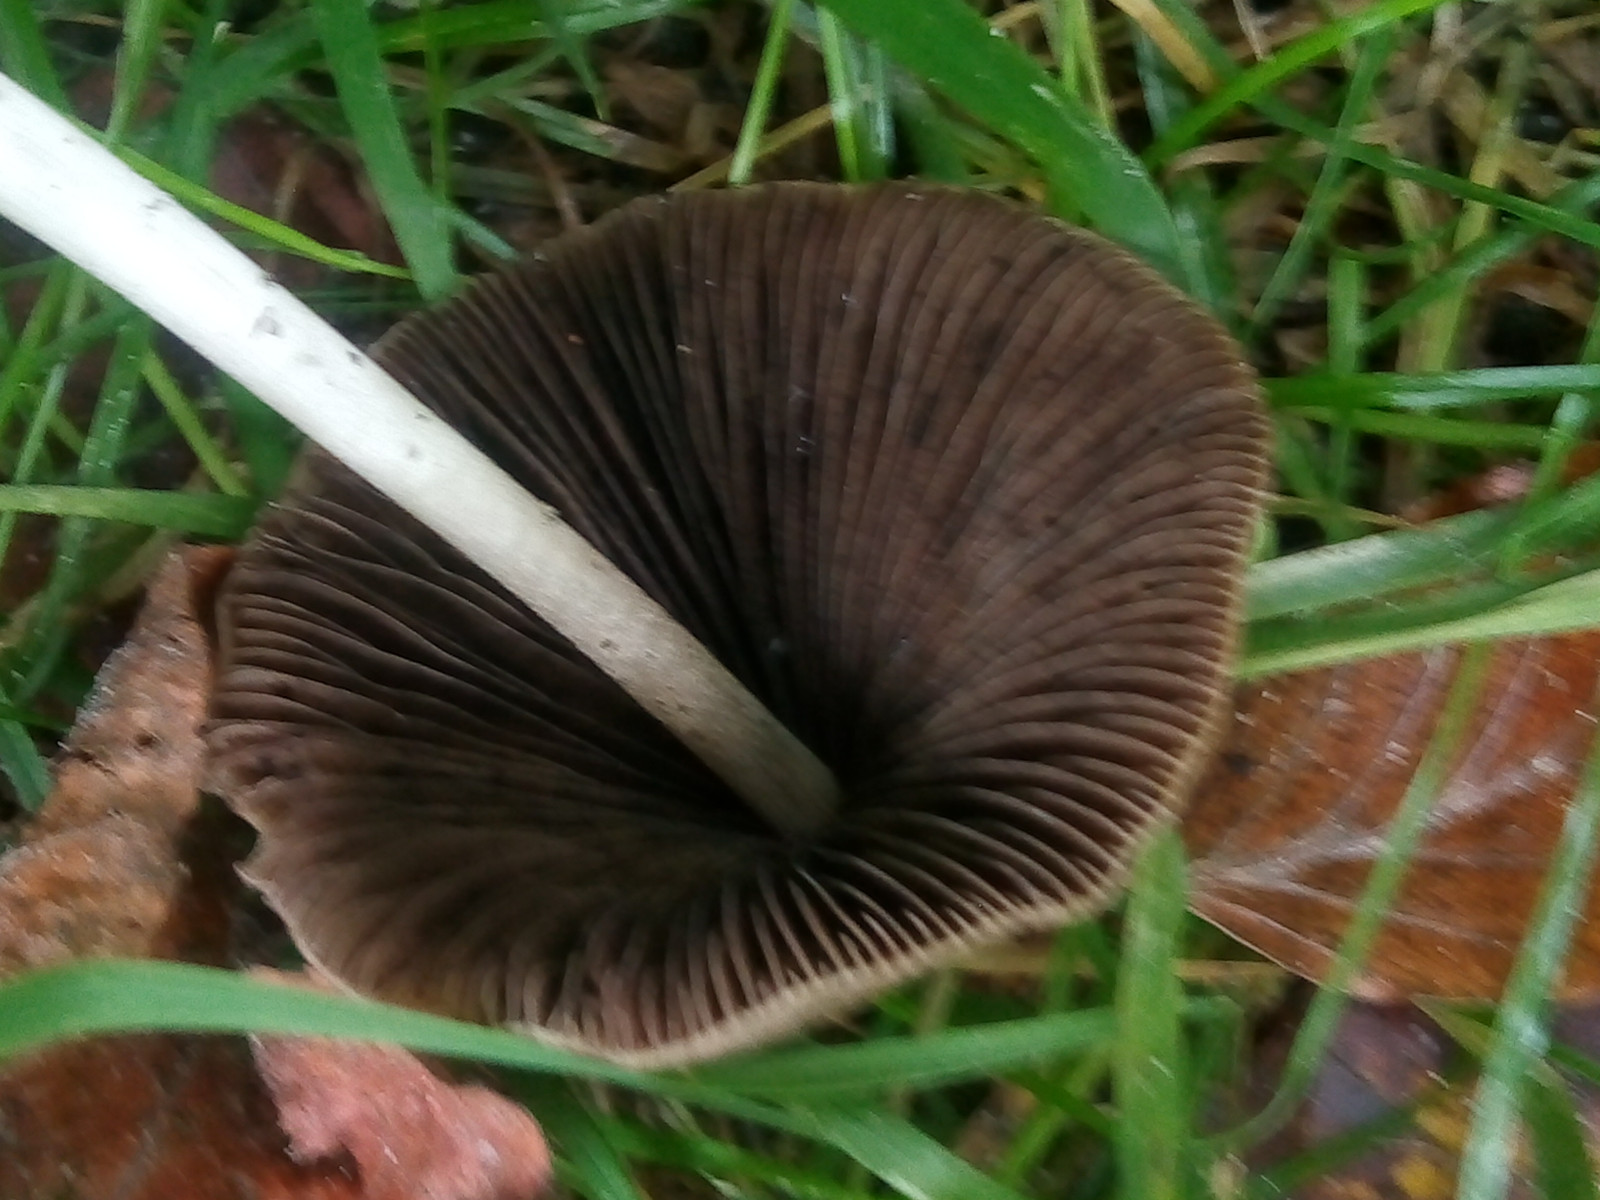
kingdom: Fungi
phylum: Basidiomycota
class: Agaricomycetes
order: Agaricales
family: Psathyrellaceae
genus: Parasola
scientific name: Parasola conopilea
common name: kegle-hjulhat
